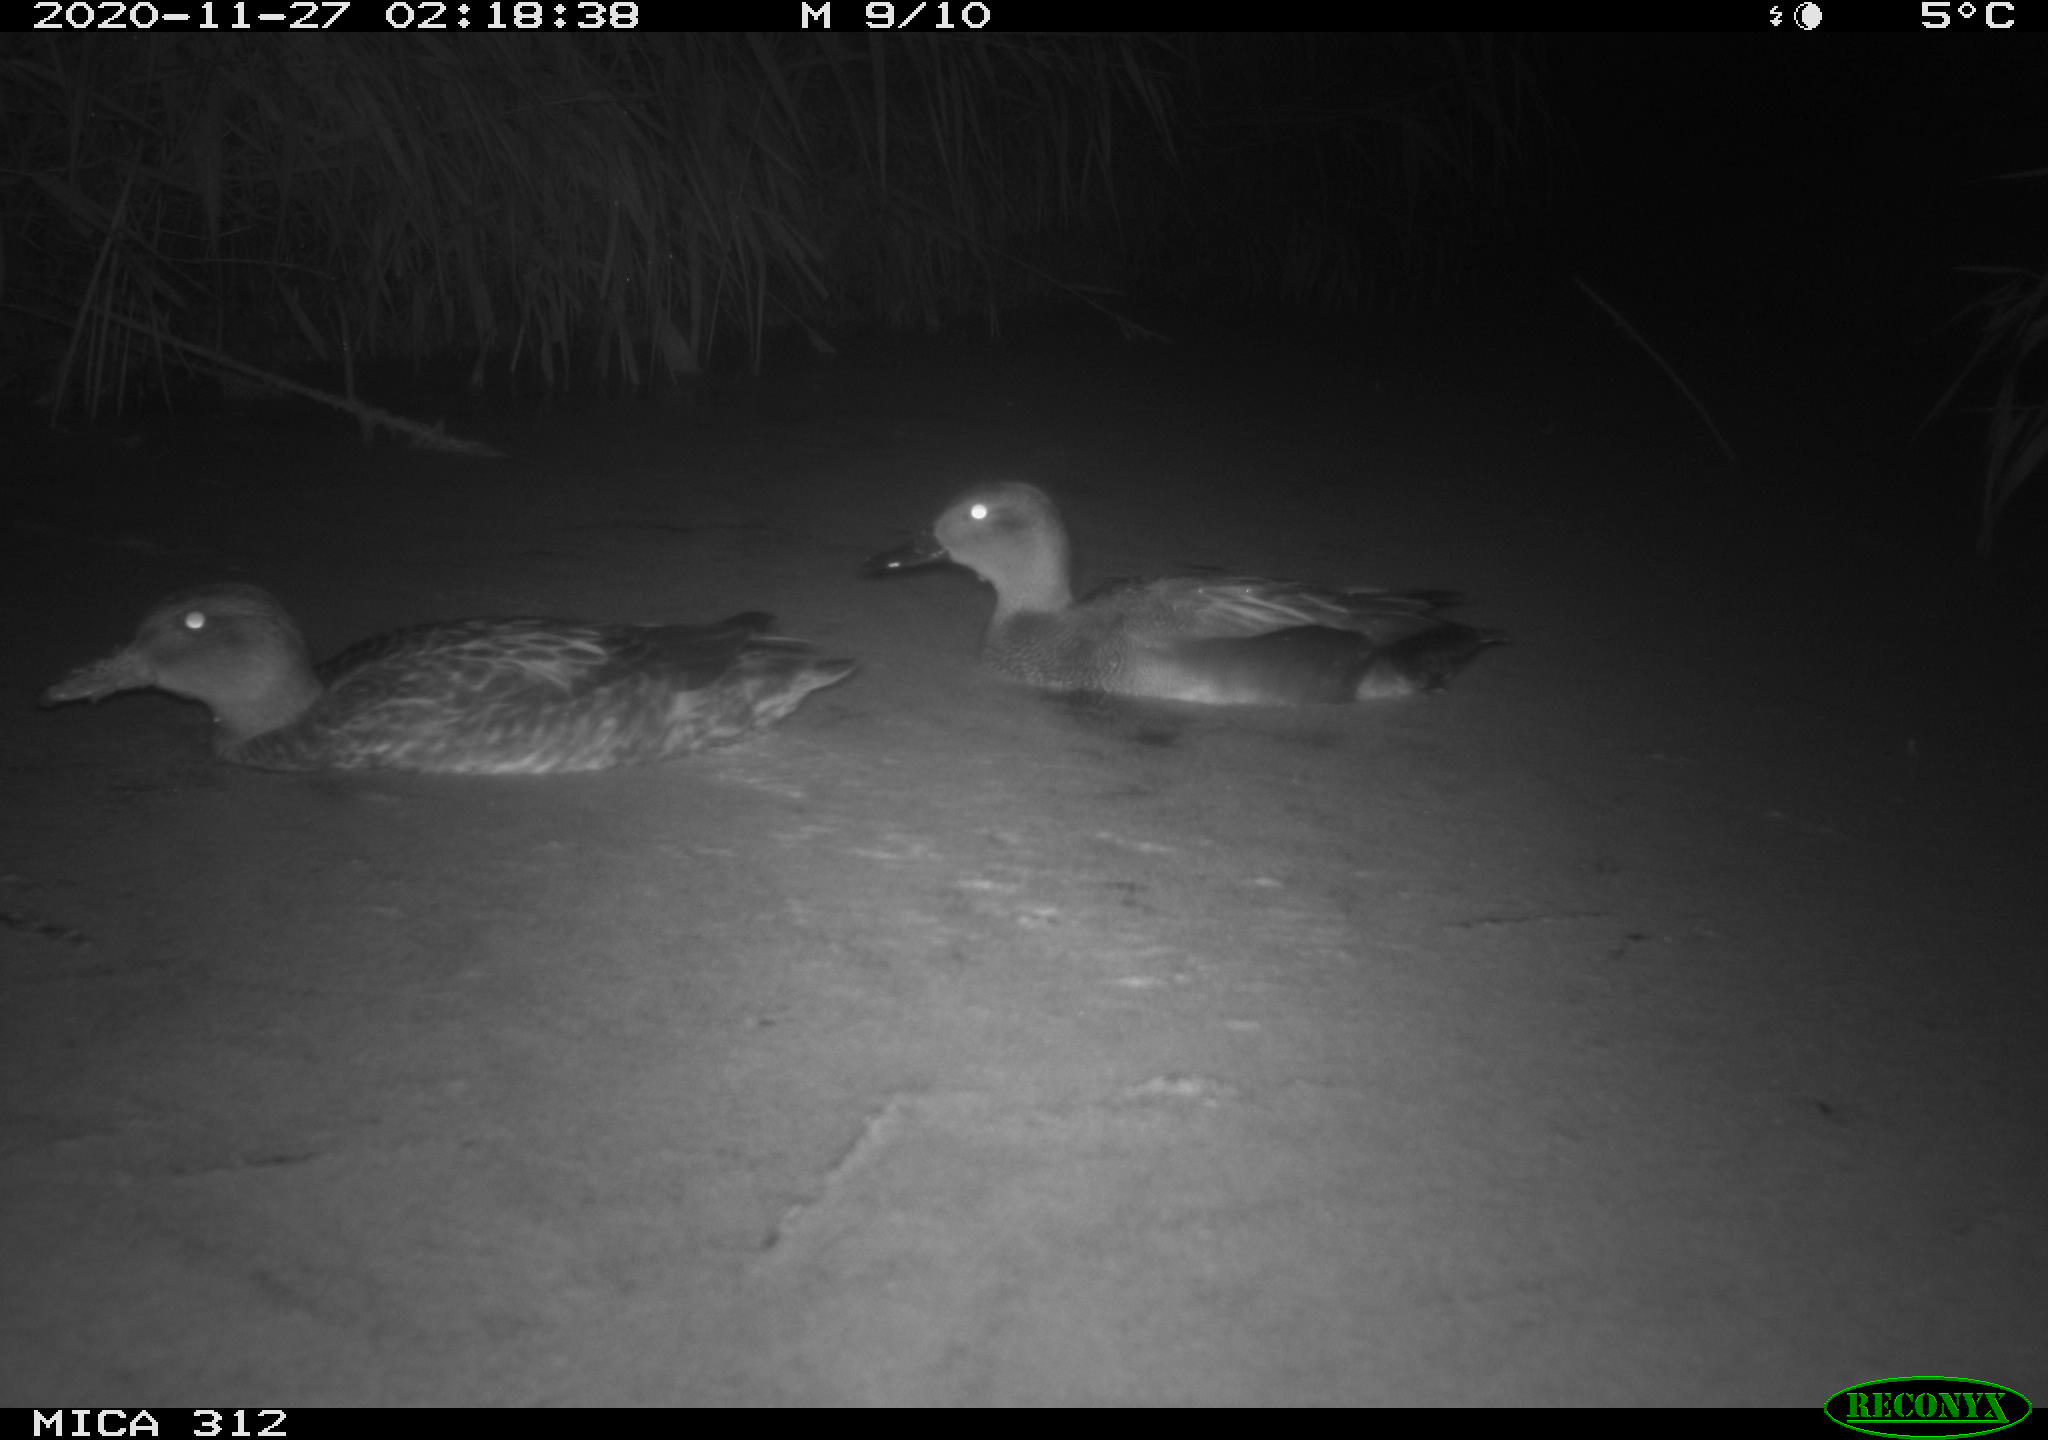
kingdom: Animalia
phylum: Chordata
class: Aves
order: Anseriformes
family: Anatidae
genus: Anas
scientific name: Anas platyrhynchos
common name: Mallard
